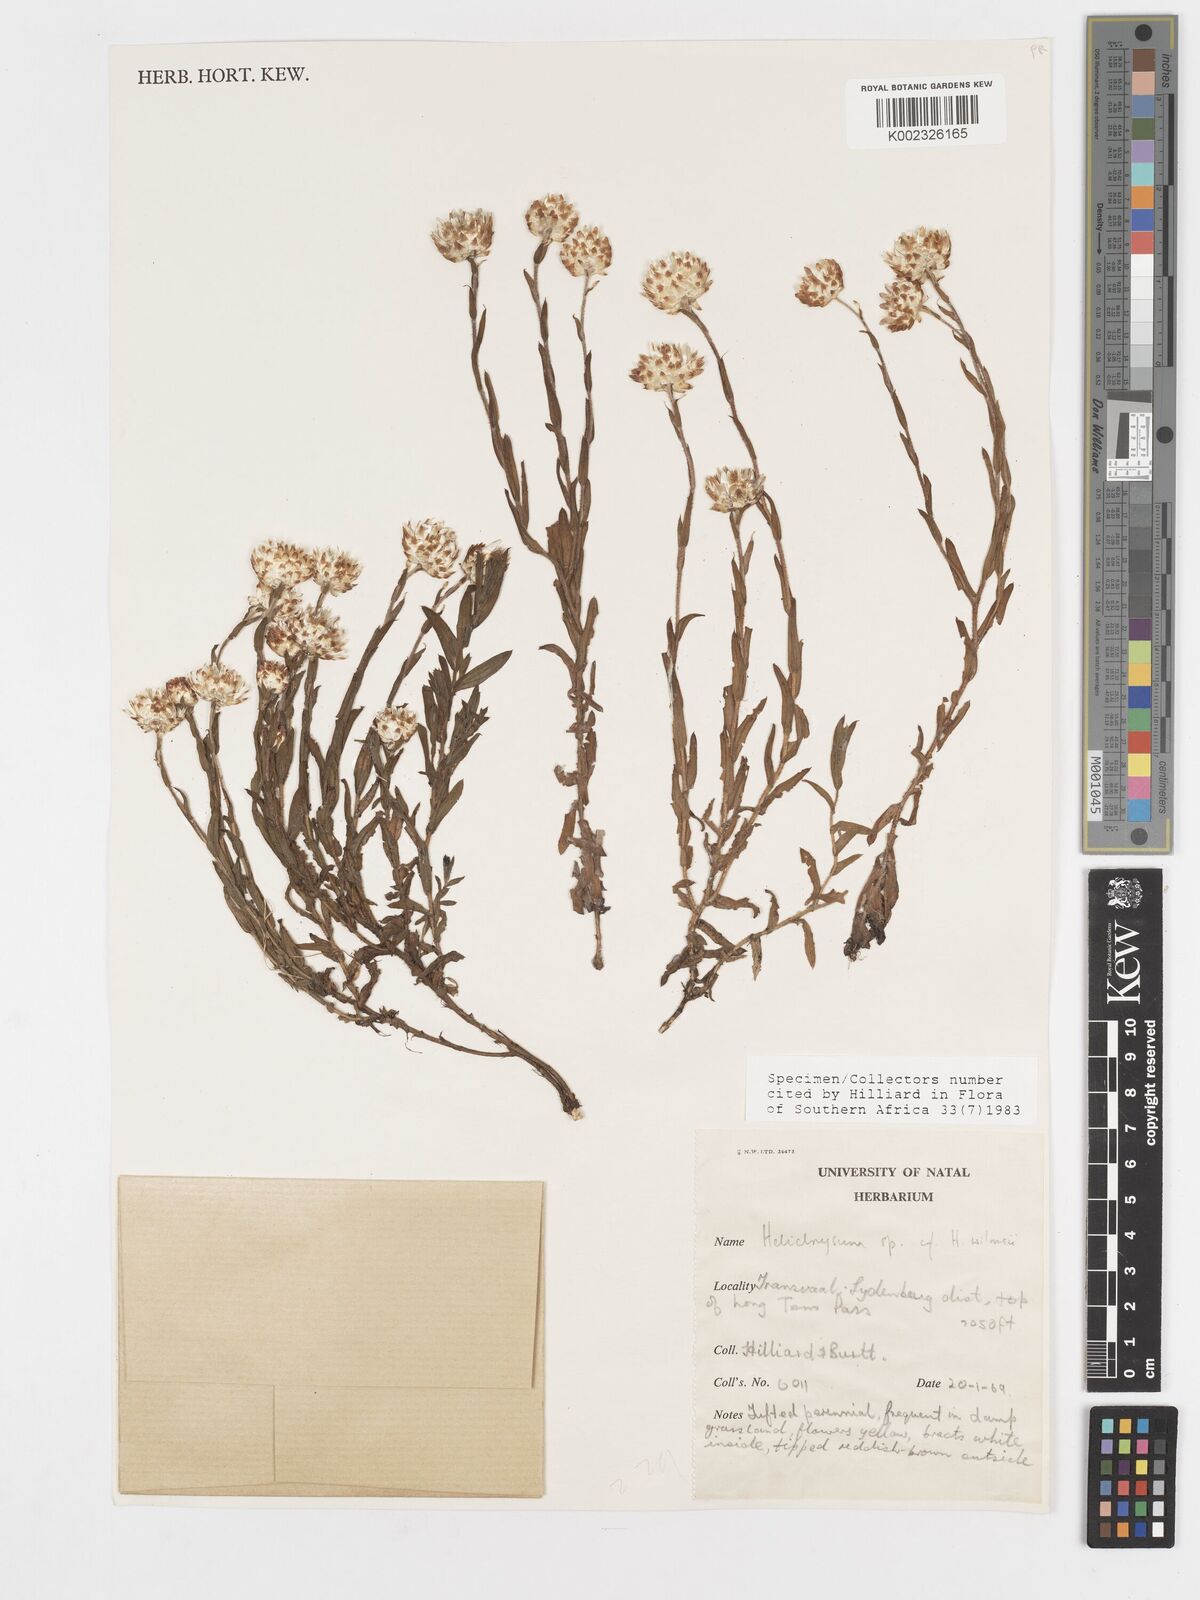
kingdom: Plantae
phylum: Tracheophyta
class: Magnoliopsida
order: Asterales
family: Asteraceae
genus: Helichrysum
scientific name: Helichrysum mariepscopicum
